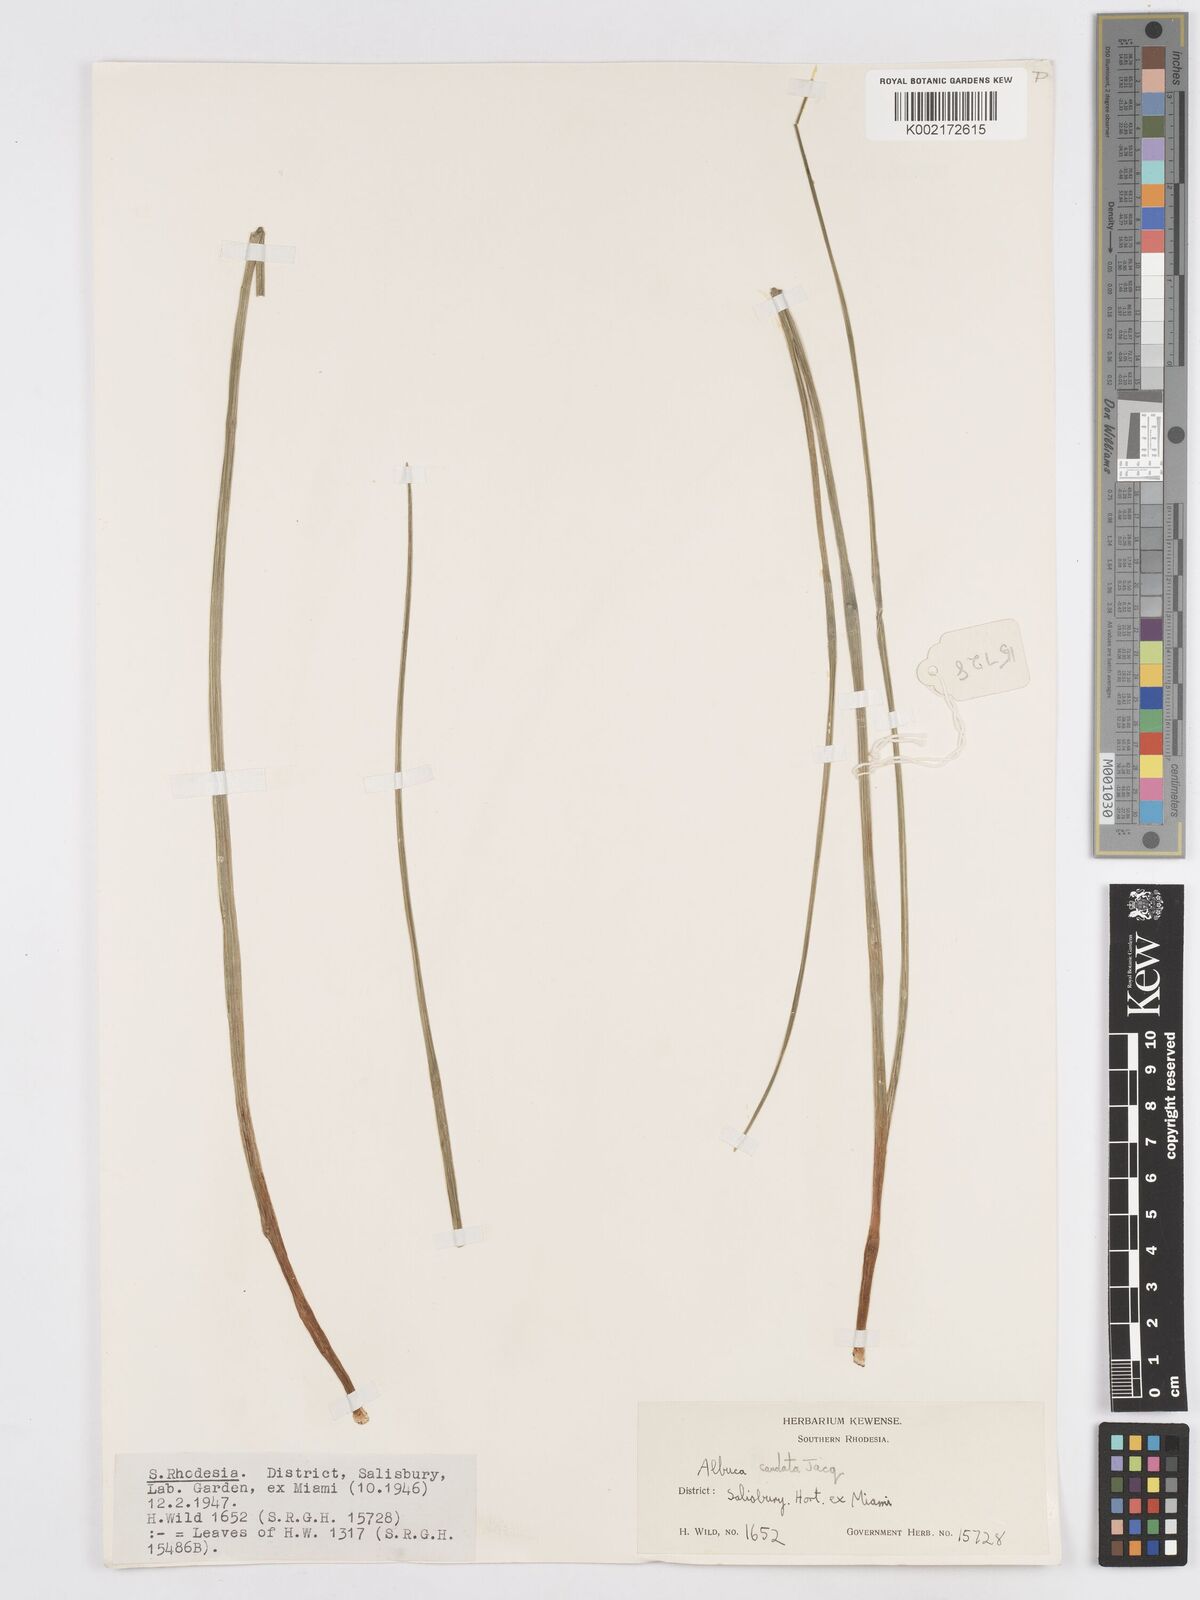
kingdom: Plantae
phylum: Tracheophyta
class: Liliopsida
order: Asparagales
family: Asparagaceae
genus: Albuca
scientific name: Albuca kirkii
